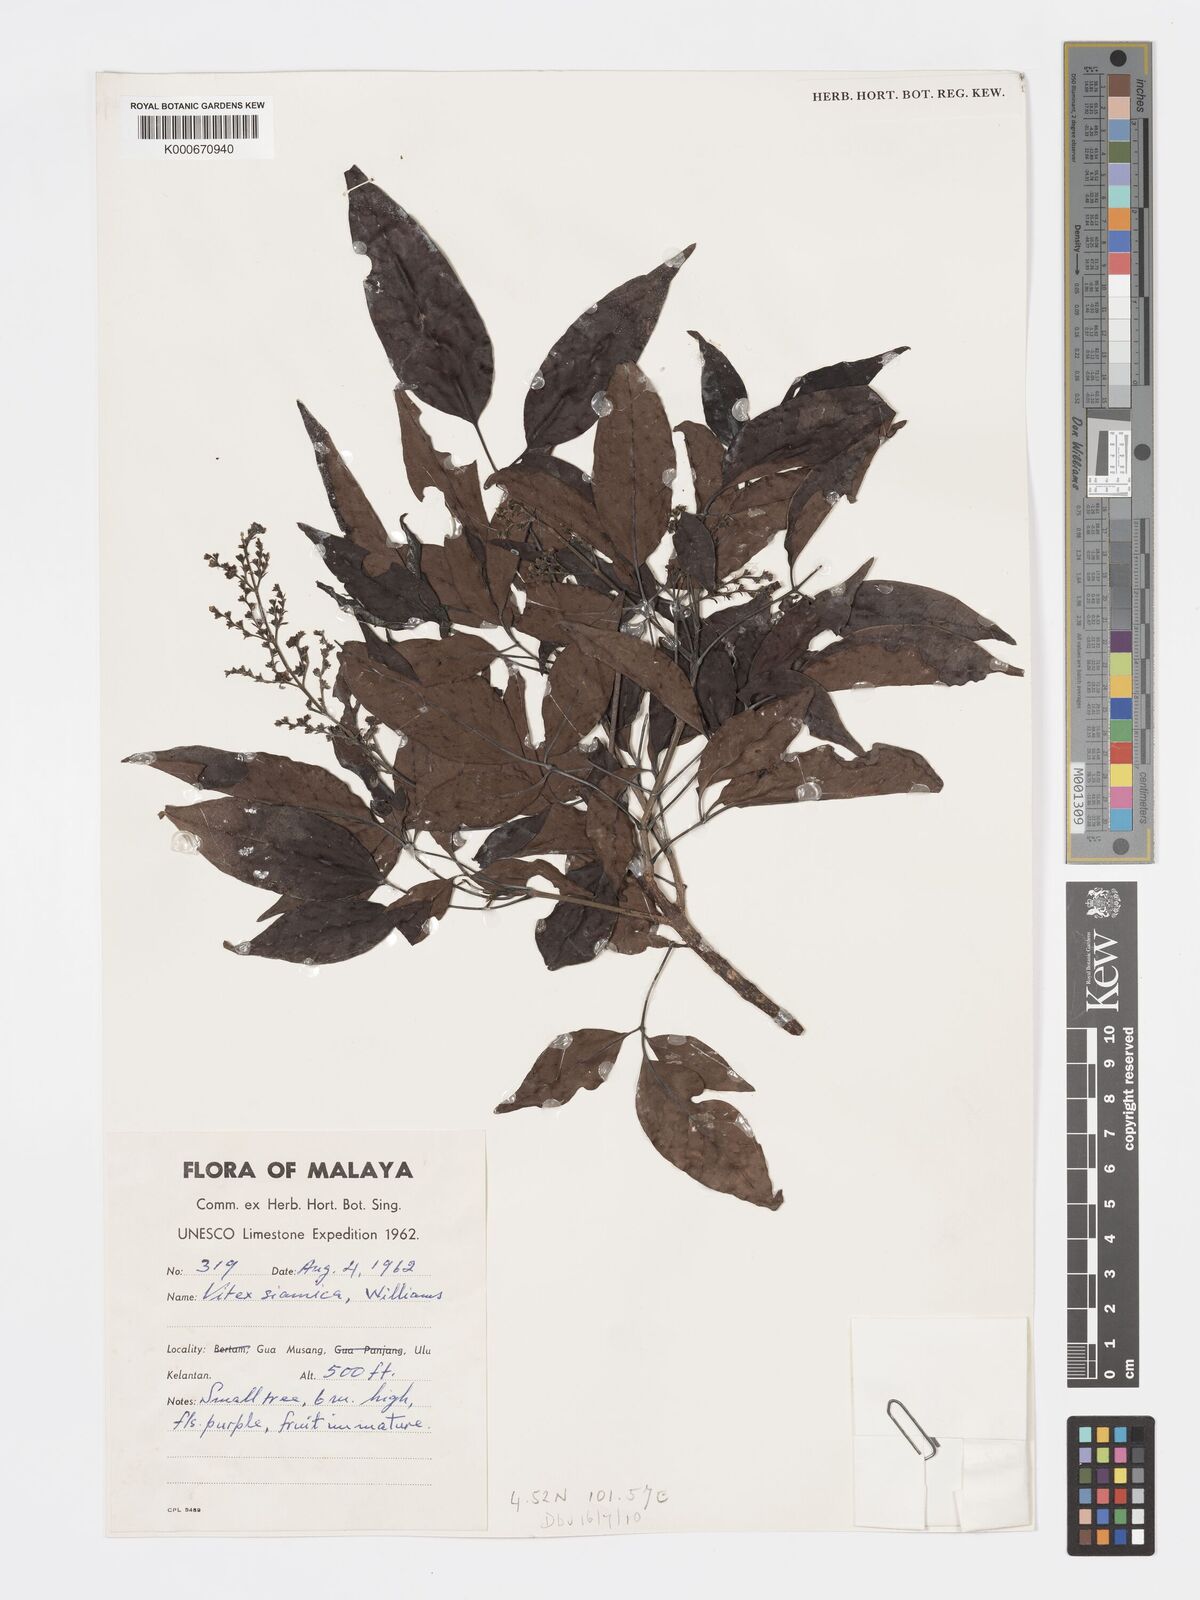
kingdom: Plantae
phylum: Tracheophyta
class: Magnoliopsida
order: Lamiales
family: Lamiaceae
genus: Vitex
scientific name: Vitex siamica
